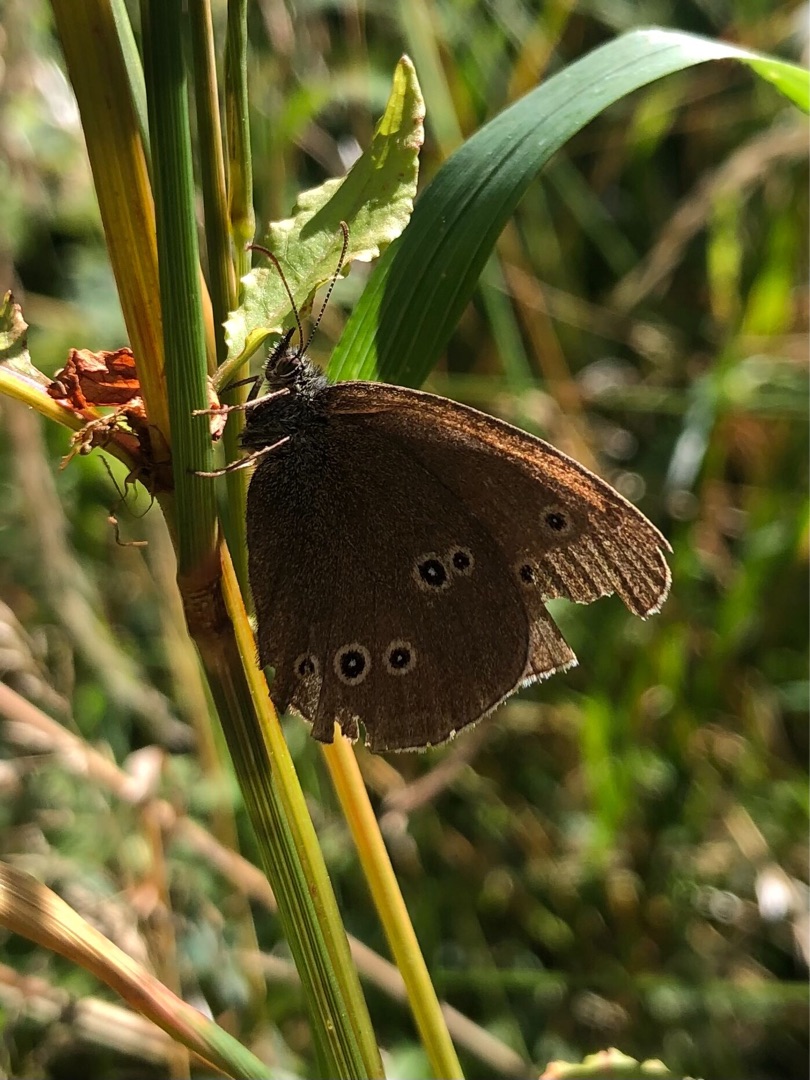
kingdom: Animalia
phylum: Arthropoda
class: Insecta
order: Lepidoptera
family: Nymphalidae
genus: Aphantopus
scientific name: Aphantopus hyperantus
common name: Engrandøje
